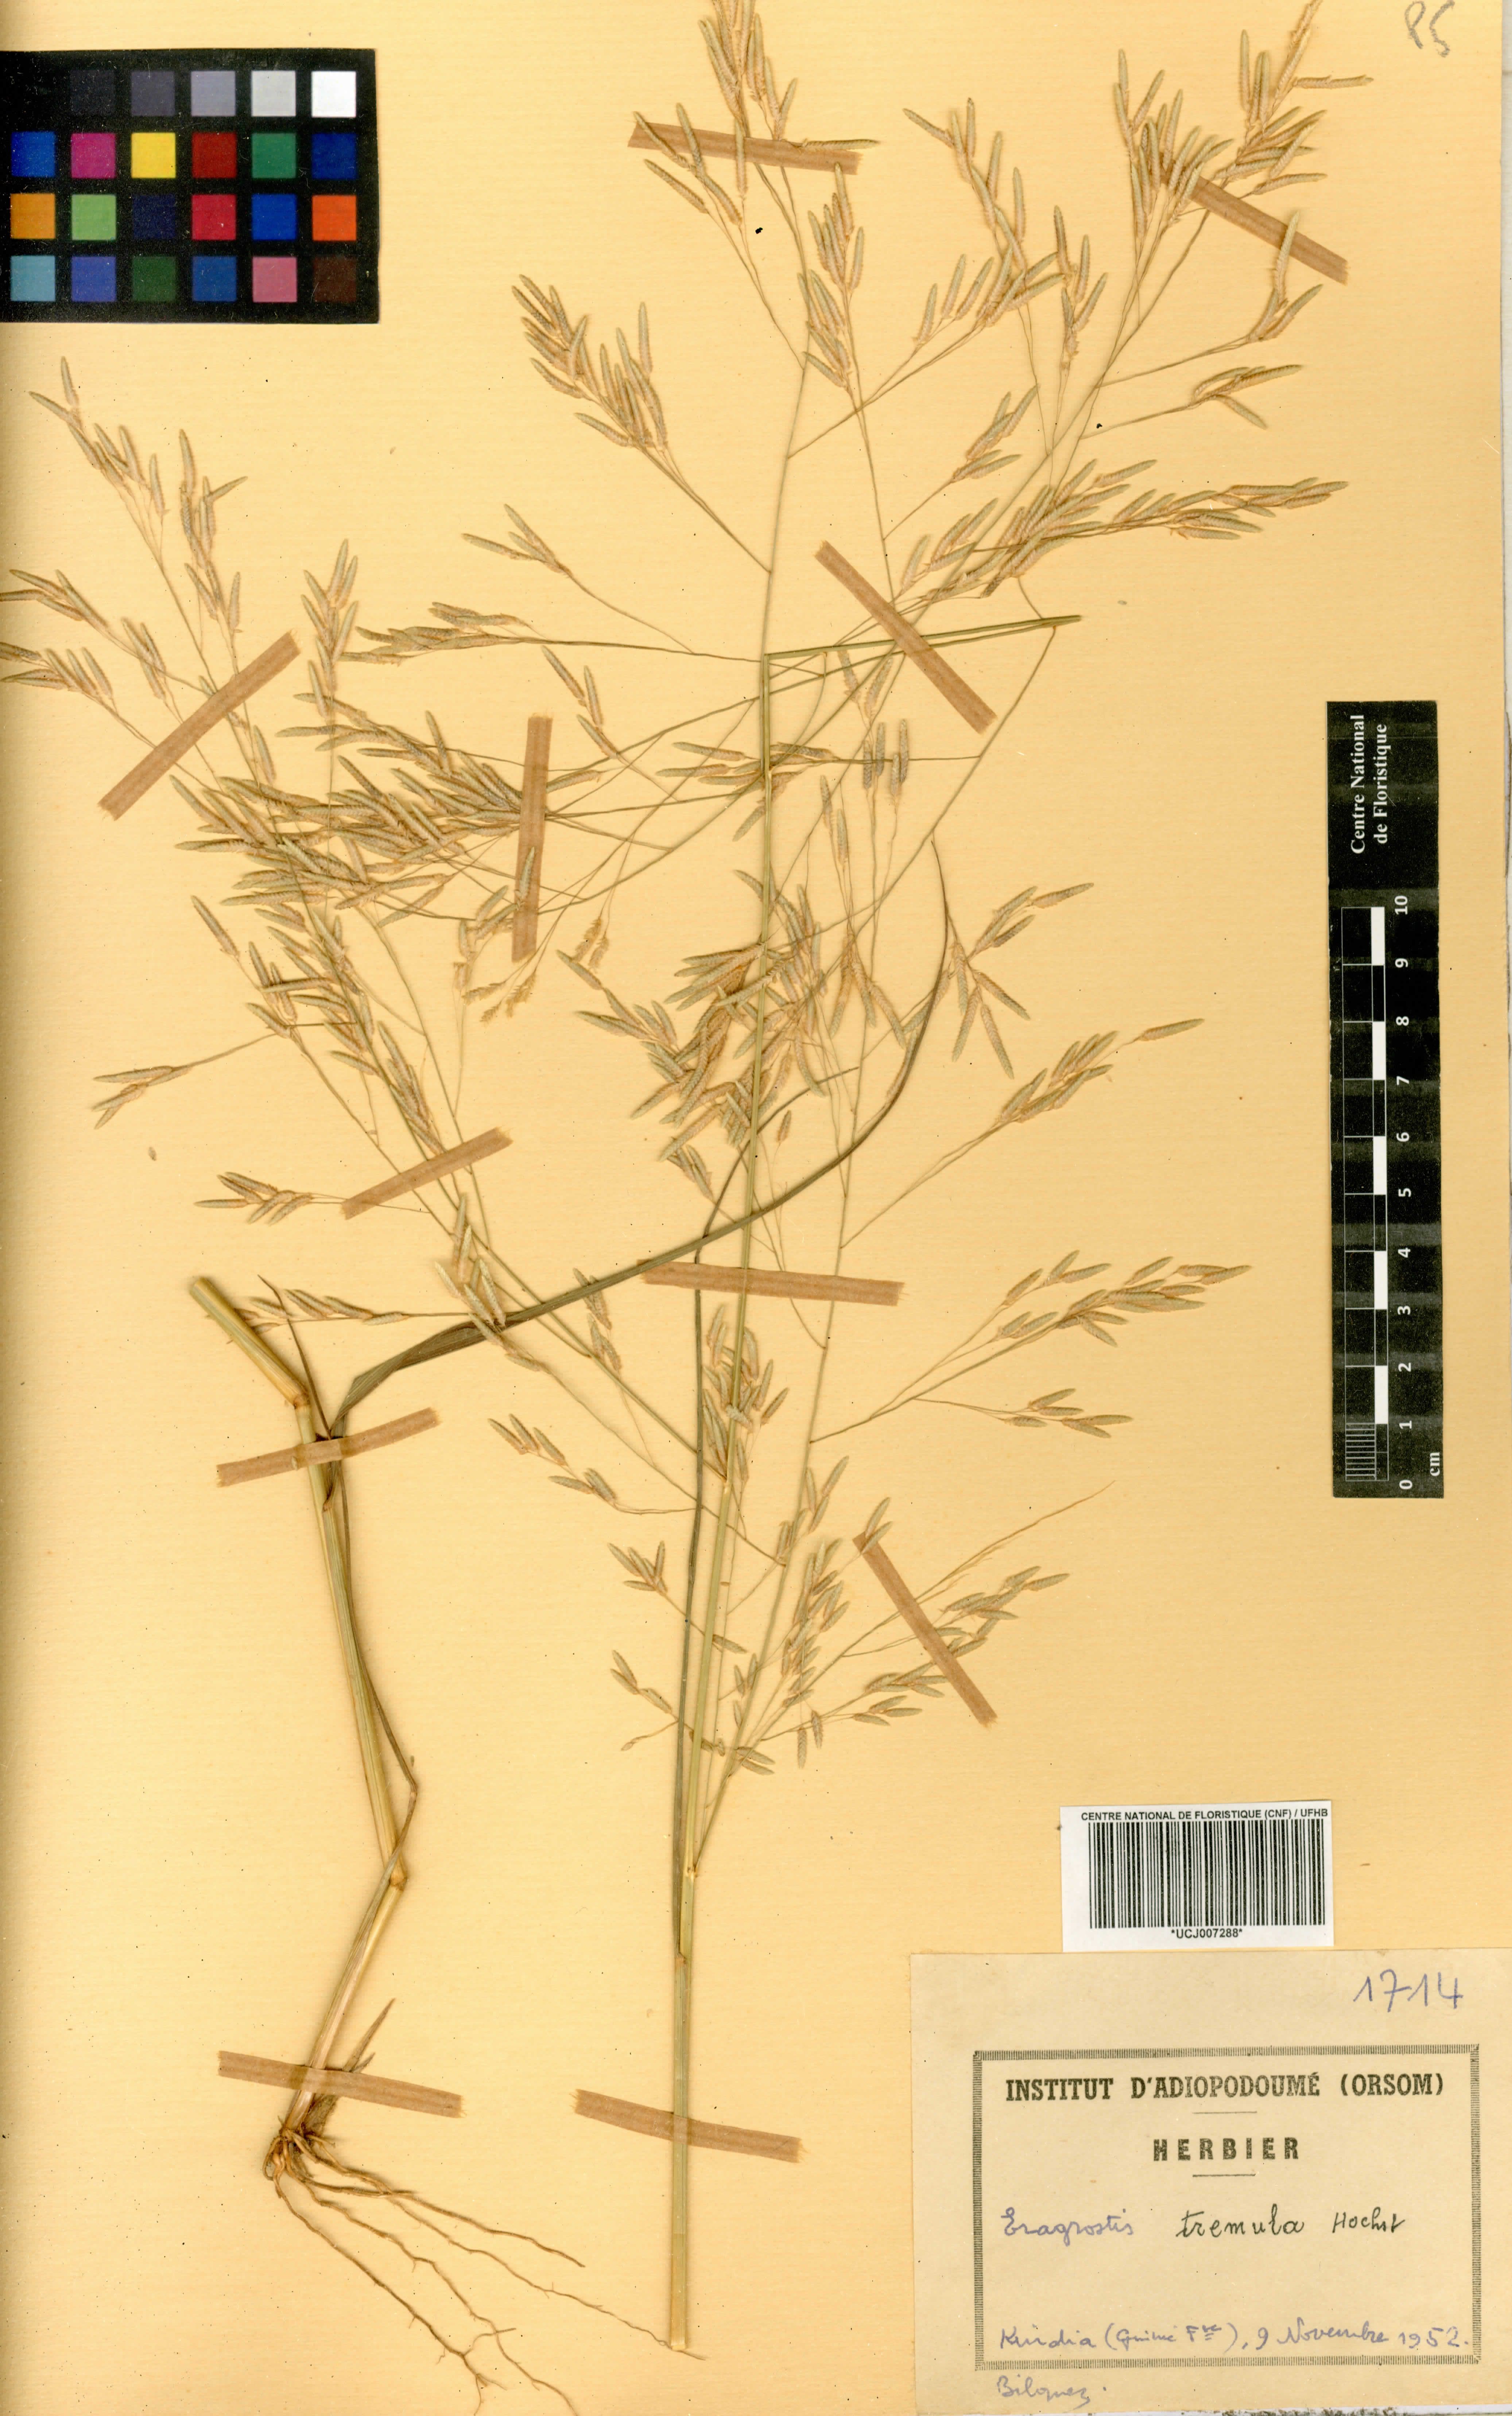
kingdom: Plantae
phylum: Tracheophyta
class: Liliopsida
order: Poales
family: Poaceae
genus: Eragrostis
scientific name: Eragrostis tremula
